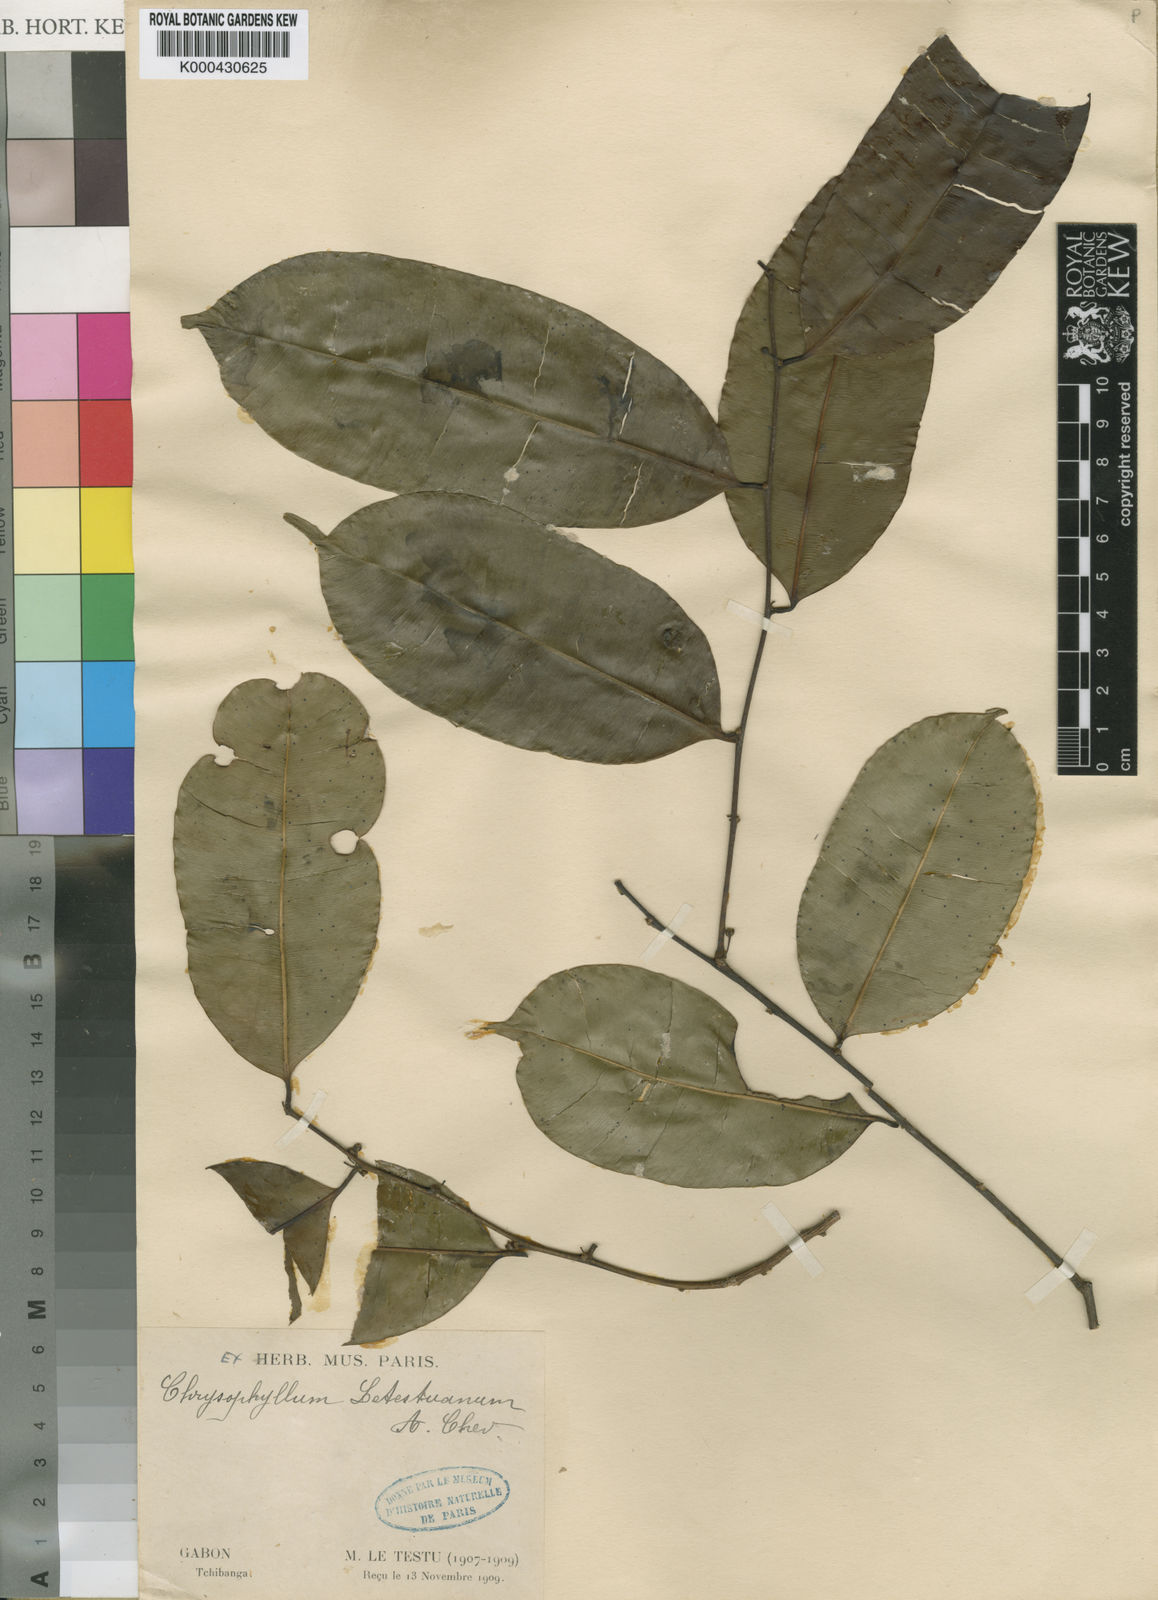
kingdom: Plantae
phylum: Tracheophyta
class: Magnoliopsida
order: Ericales
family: Sapotaceae
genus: Donella
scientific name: Donella ubangiensis
